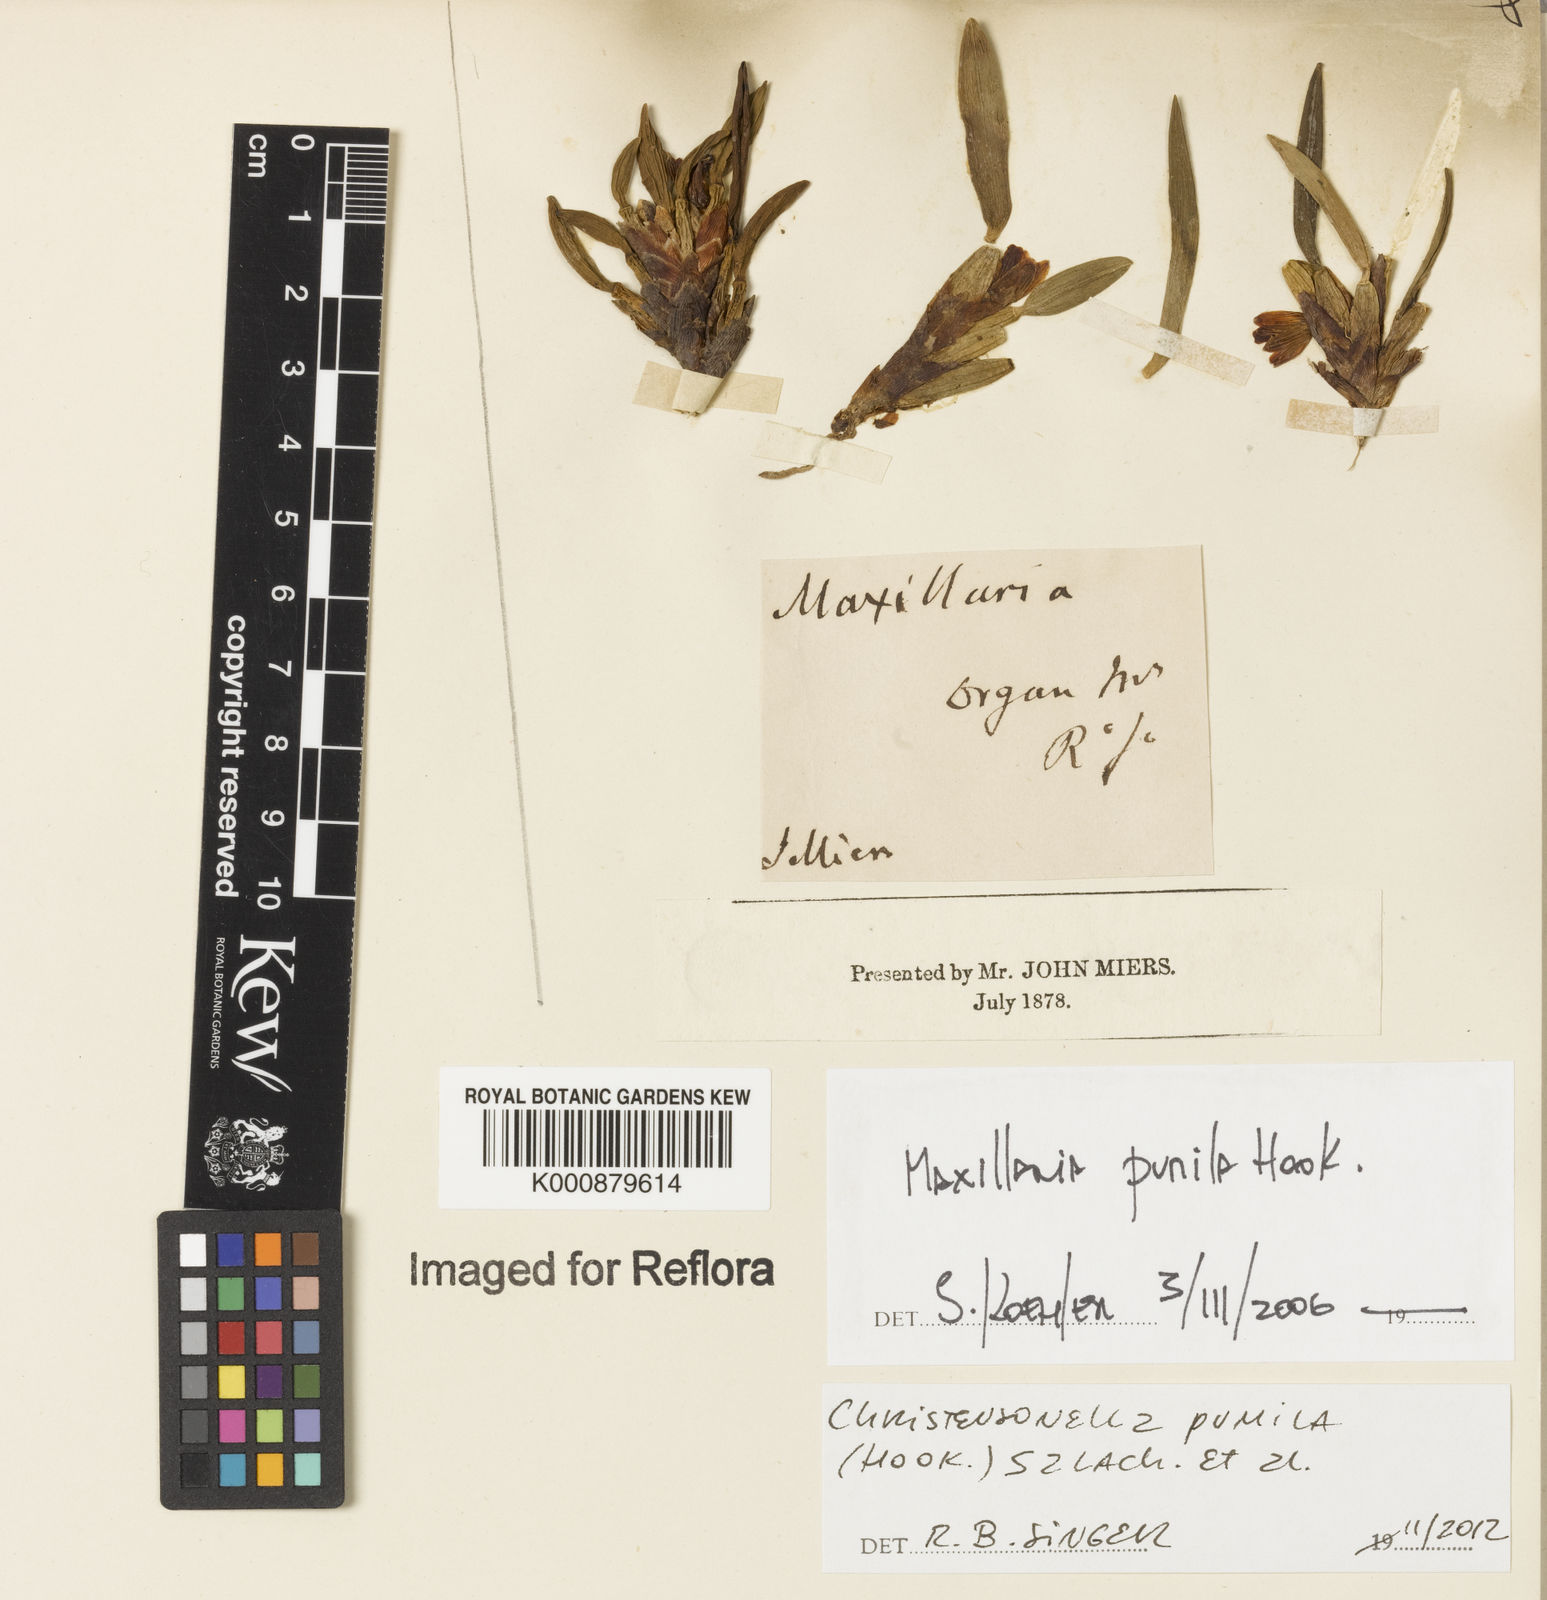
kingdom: Plantae
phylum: Tracheophyta
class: Liliopsida
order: Asparagales
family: Orchidaceae
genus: Maxillaria
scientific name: Maxillaria pumila
